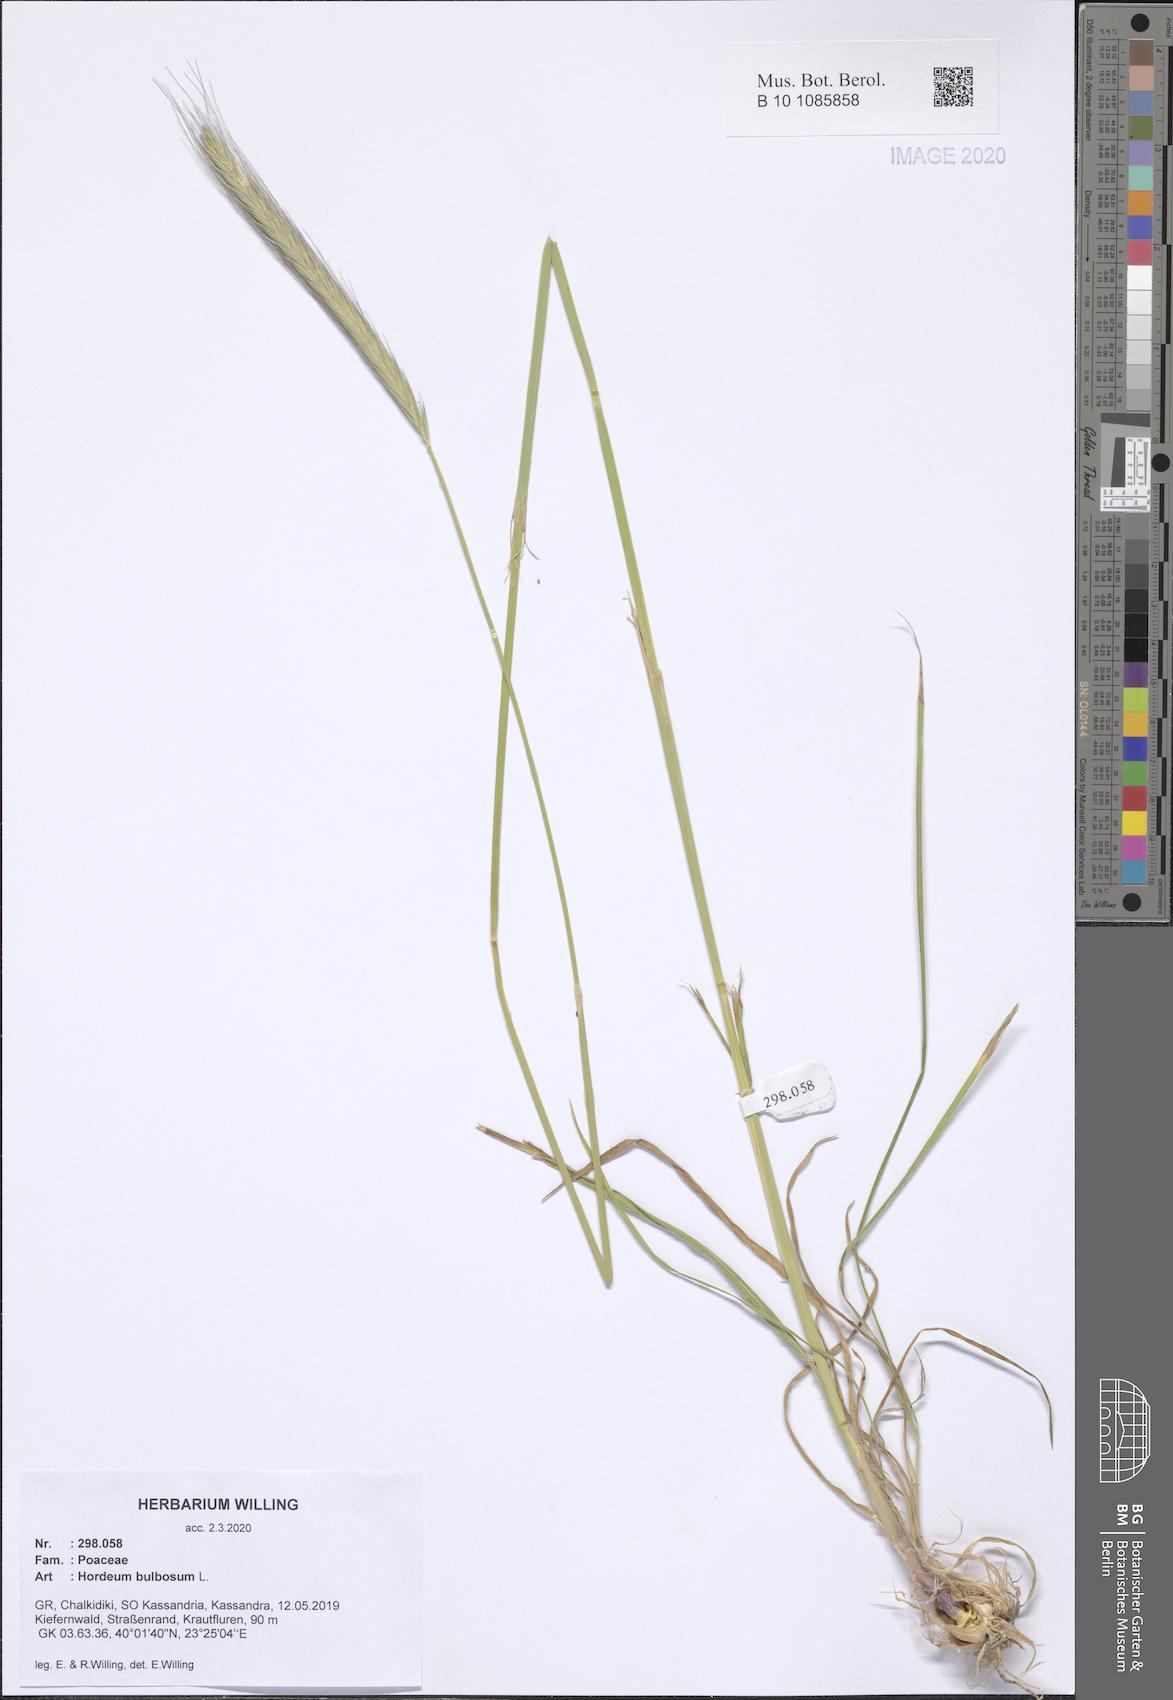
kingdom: Plantae
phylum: Tracheophyta
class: Liliopsida
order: Poales
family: Poaceae
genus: Hordeum
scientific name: Hordeum bulbosum
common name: Bulbous barley
